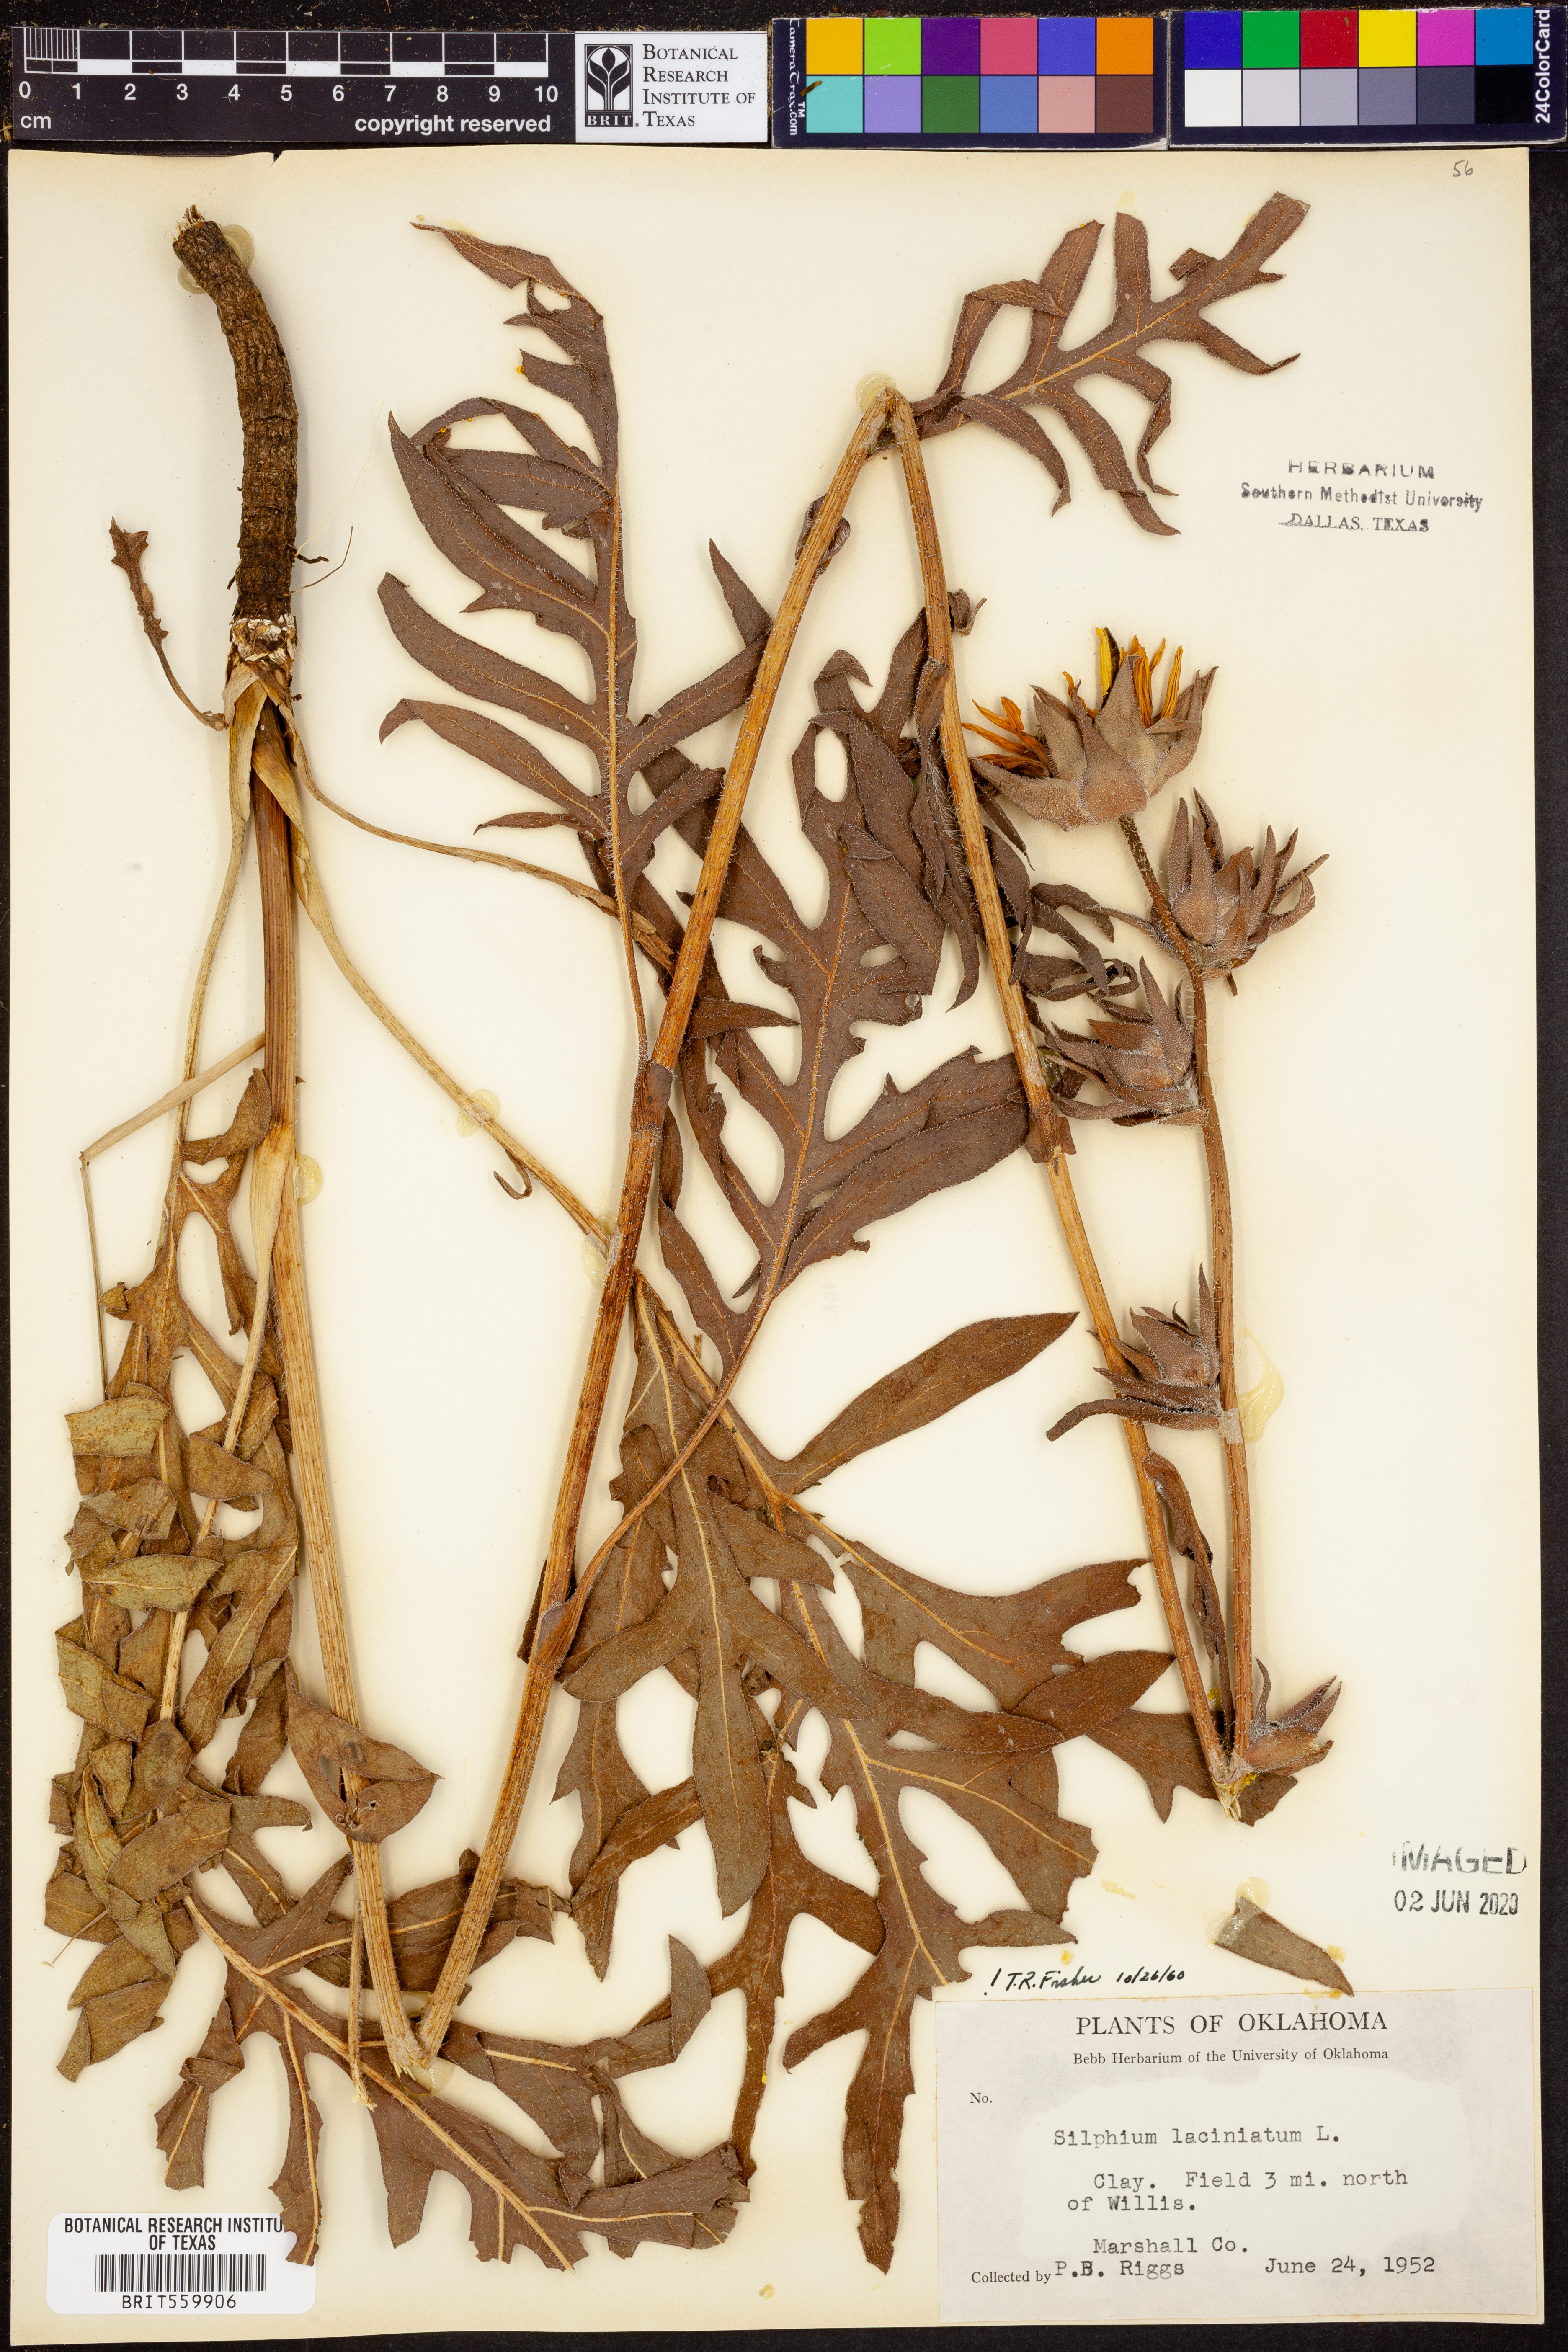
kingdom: Plantae
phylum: Tracheophyta
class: Magnoliopsida
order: Asterales
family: Asteraceae
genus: Silphium
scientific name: Silphium laciniatum
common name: Polarplant
